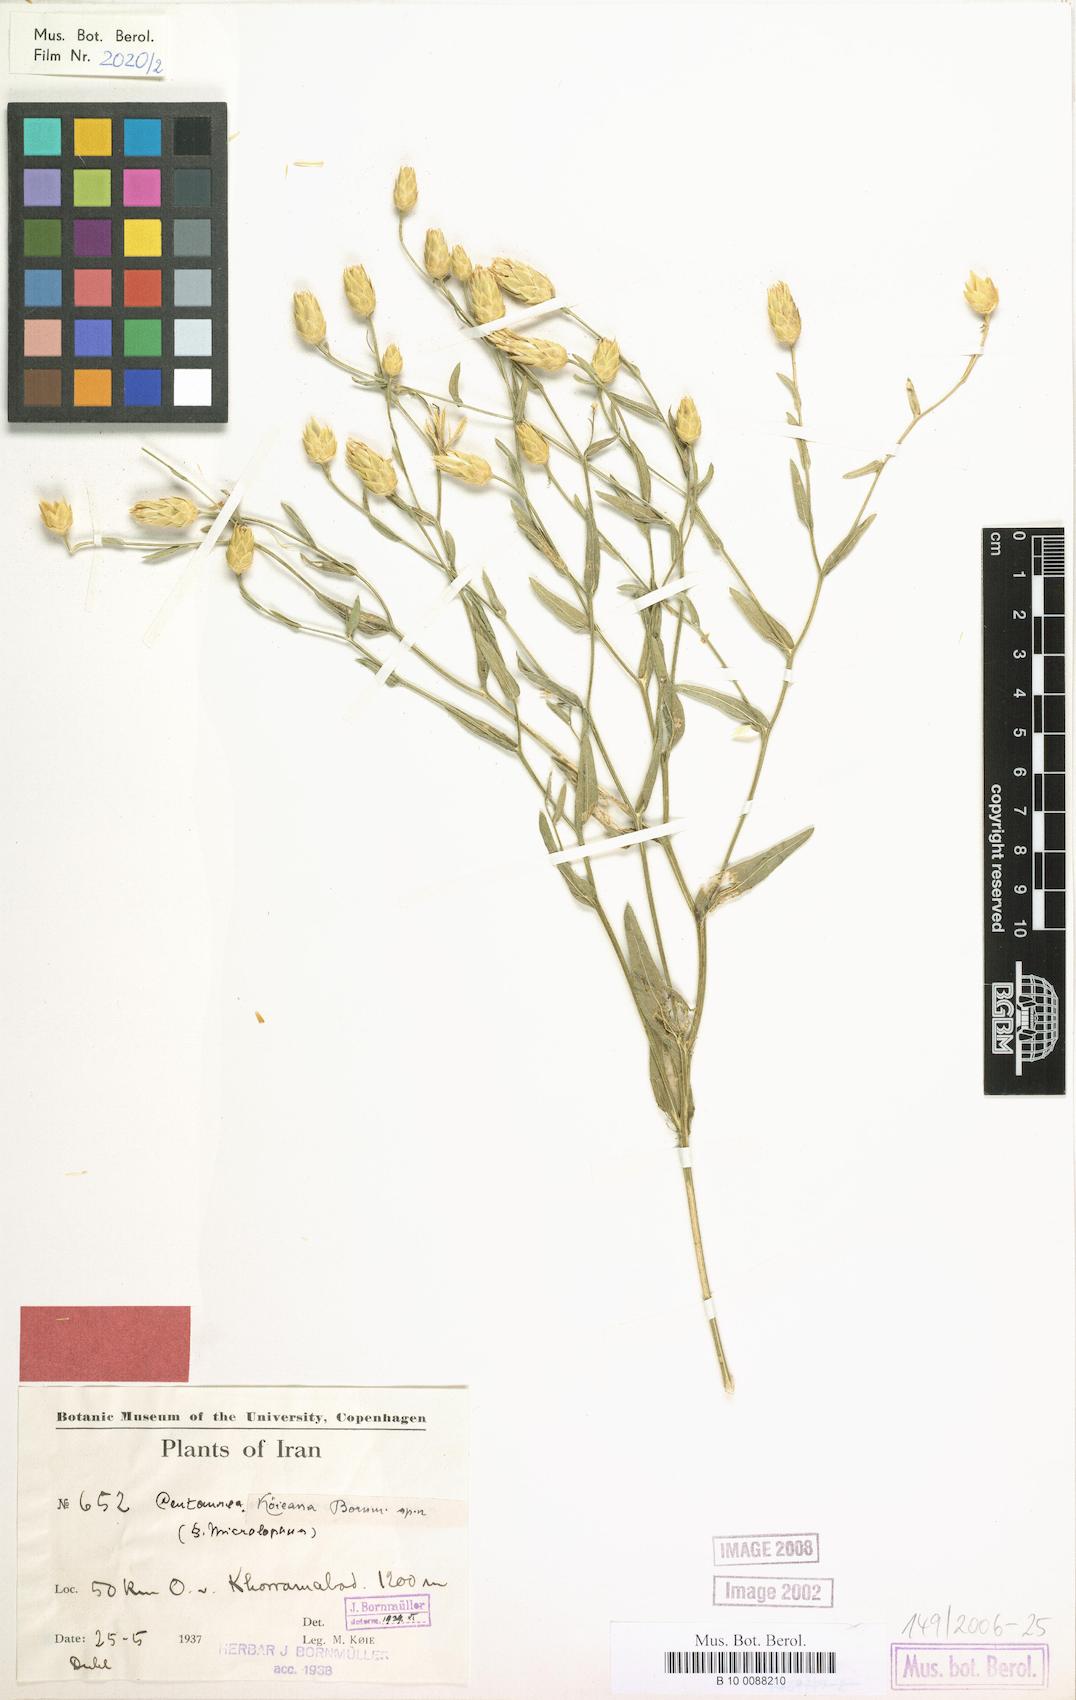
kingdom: Plantae
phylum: Tracheophyta
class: Magnoliopsida
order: Asterales
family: Asteraceae
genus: Centaurea
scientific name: Centaurea koeieana
